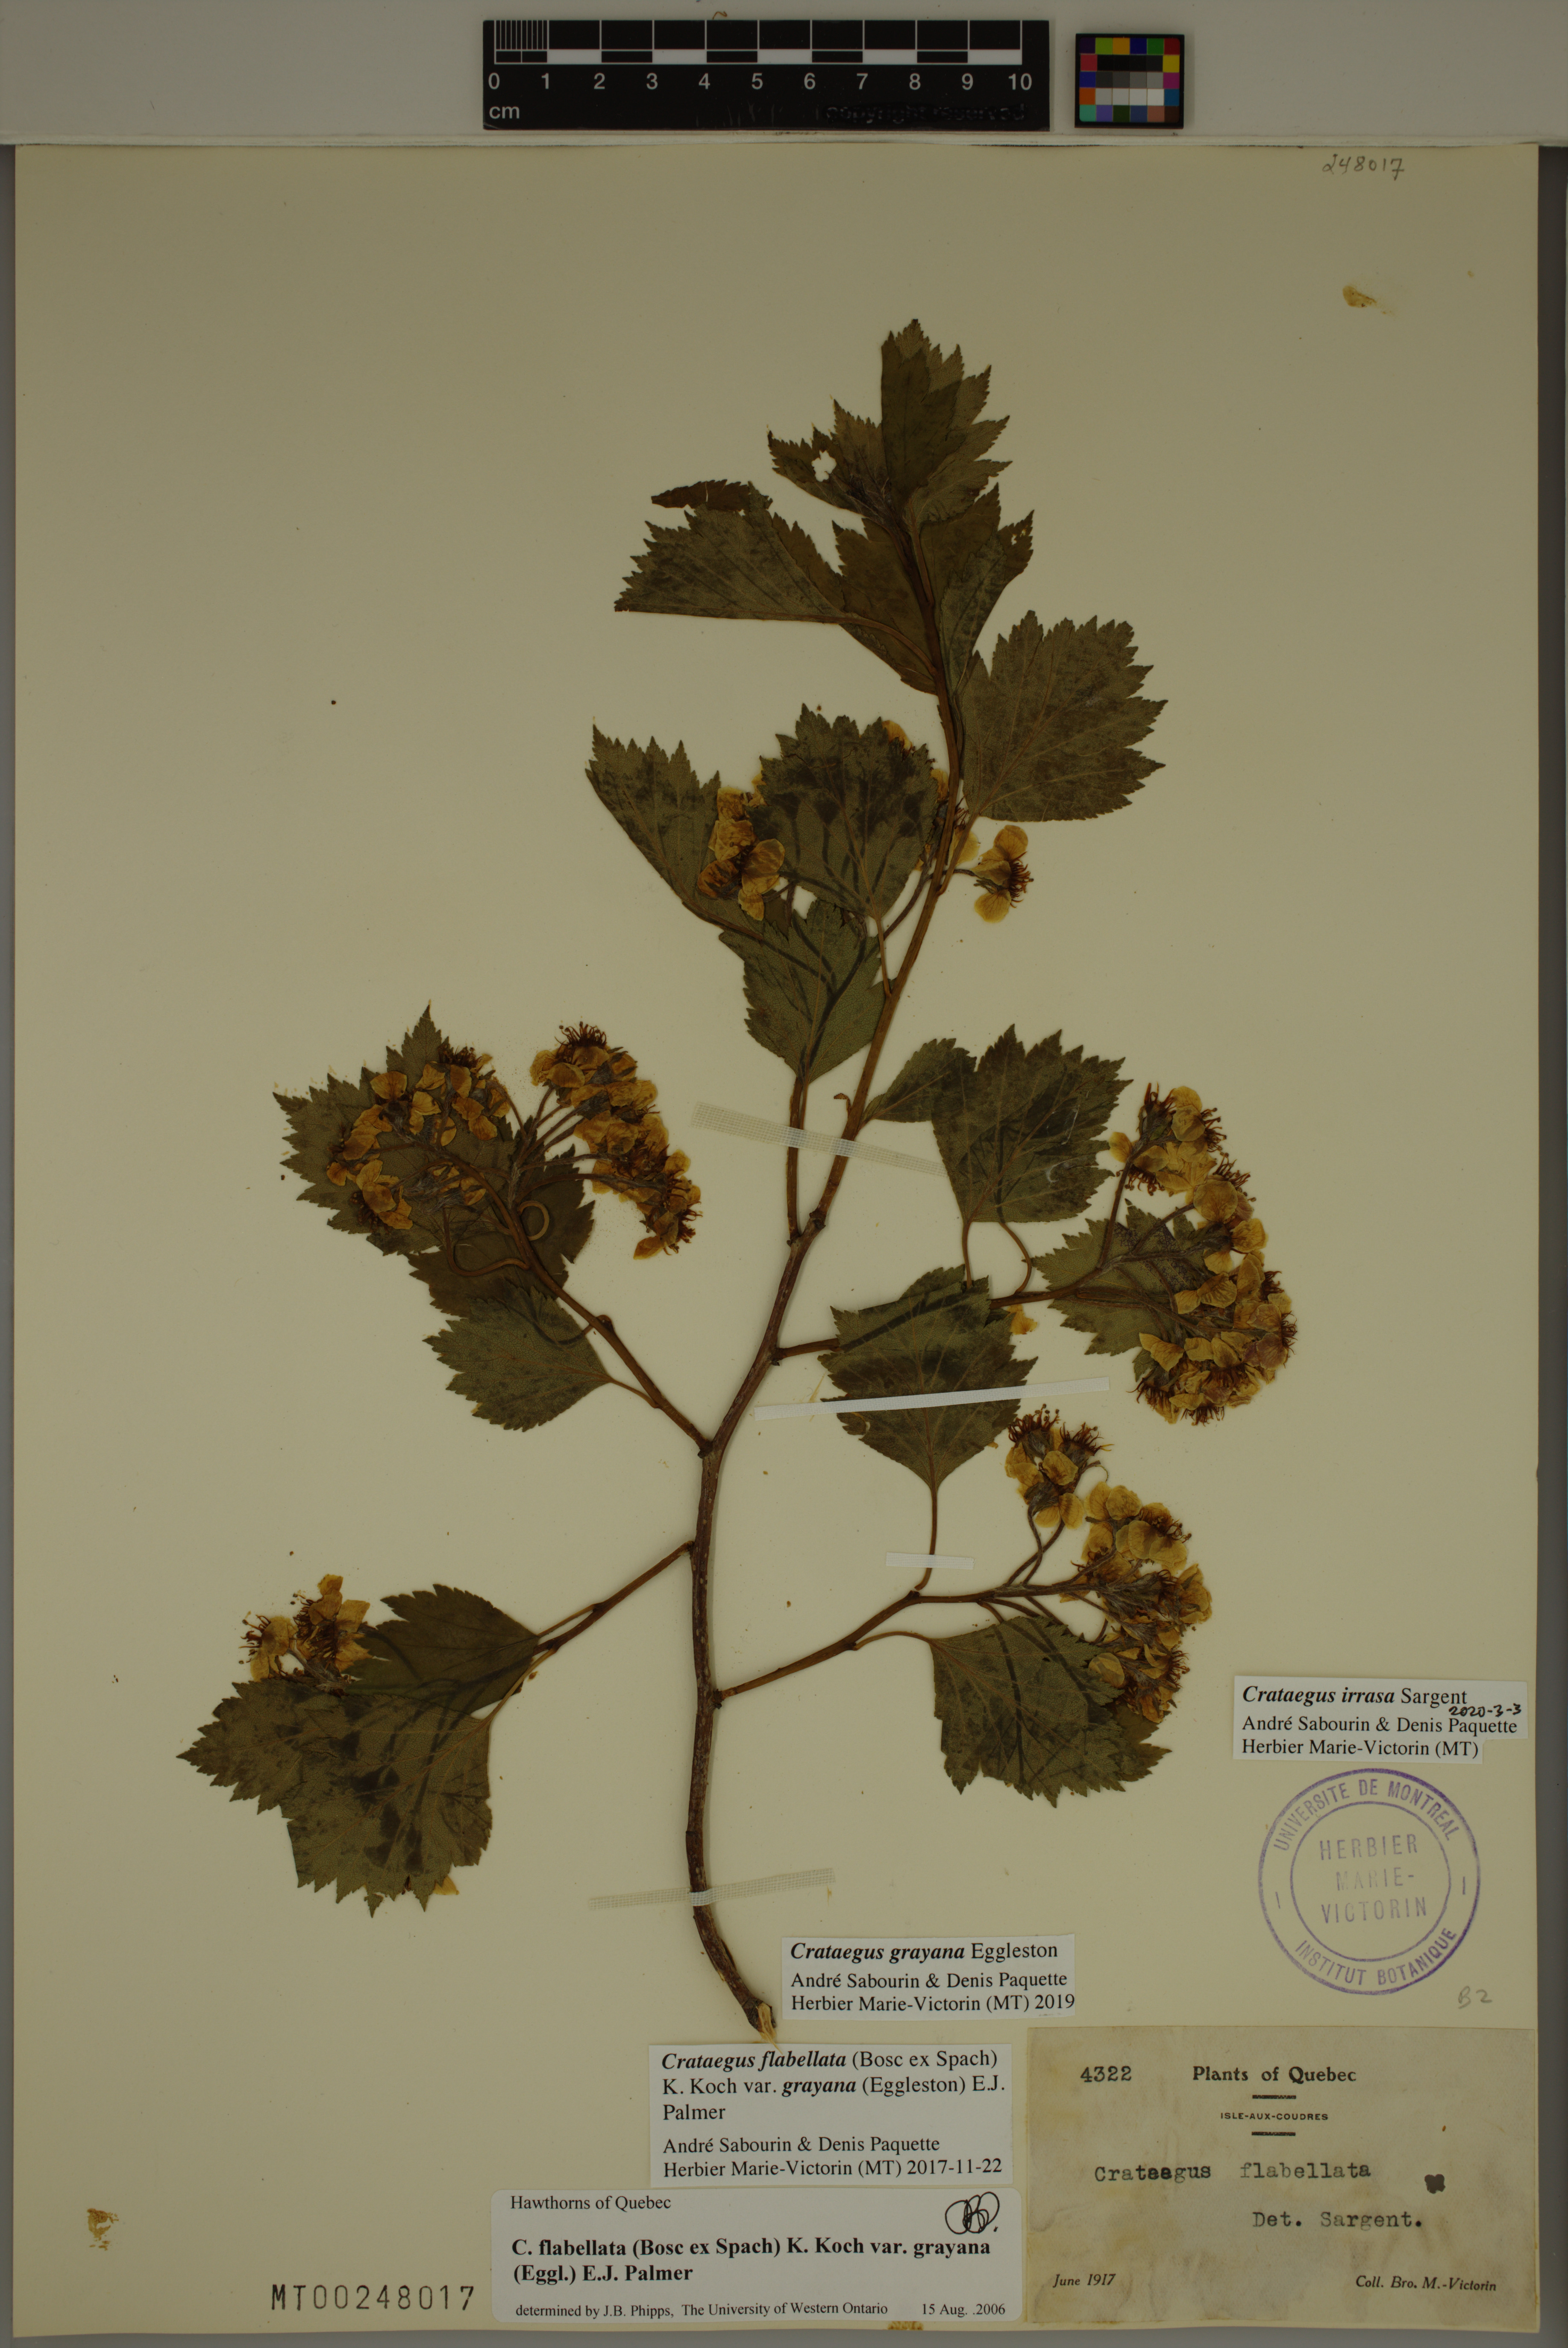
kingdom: Plantae
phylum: Tracheophyta
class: Magnoliopsida
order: Rosales
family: Rosaceae
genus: Crataegus
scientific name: Crataegus irrasa
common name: Unshorn hawthorn
